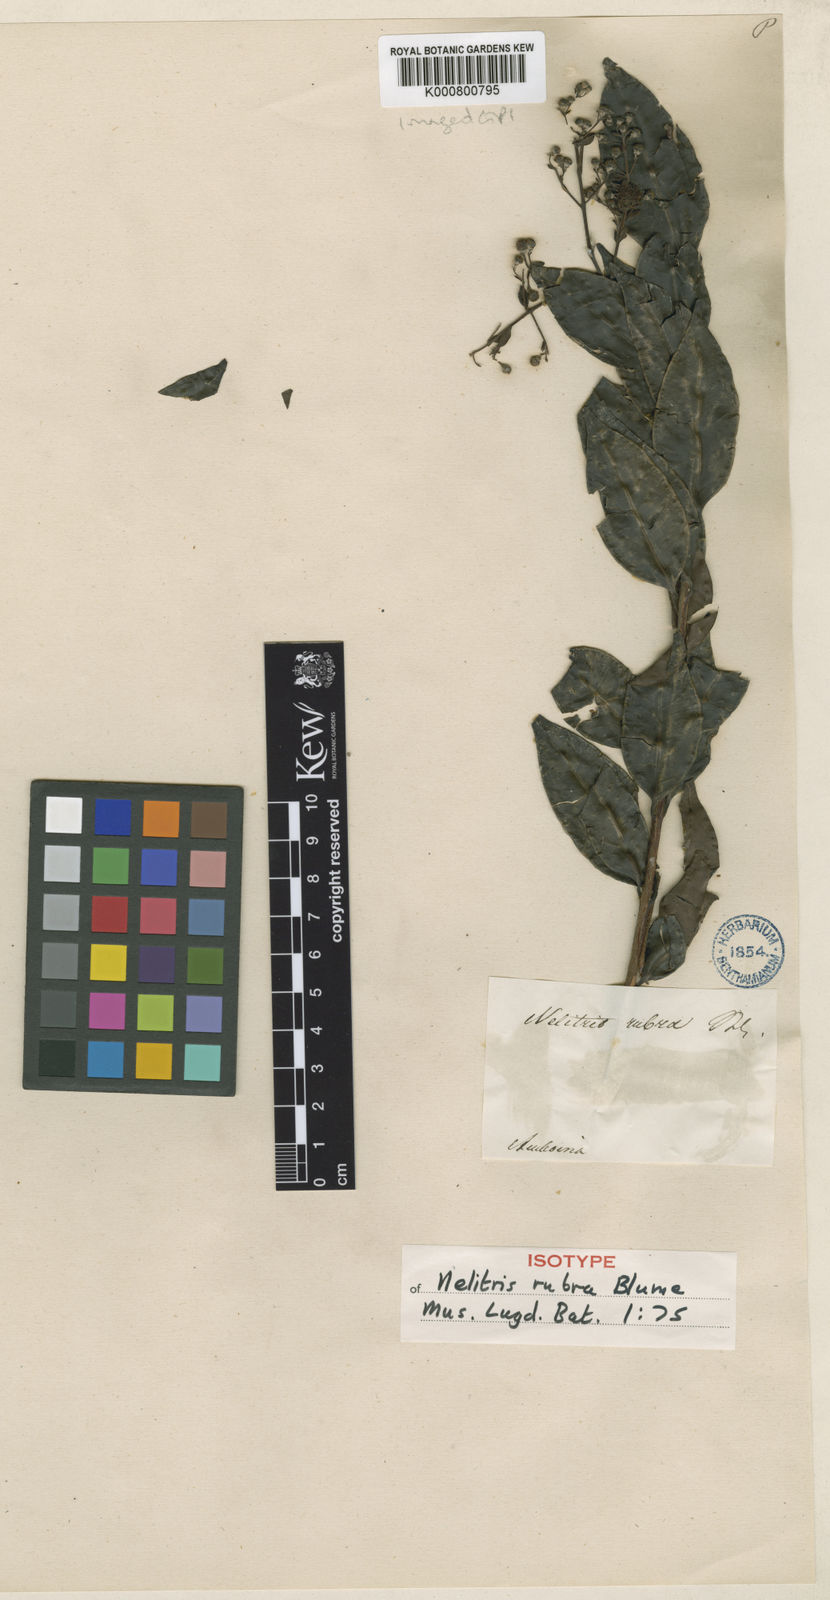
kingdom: Plantae
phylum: Tracheophyta
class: Magnoliopsida
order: Myrtales
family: Myrtaceae
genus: Decaspermum
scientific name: Decaspermum parviflorum
